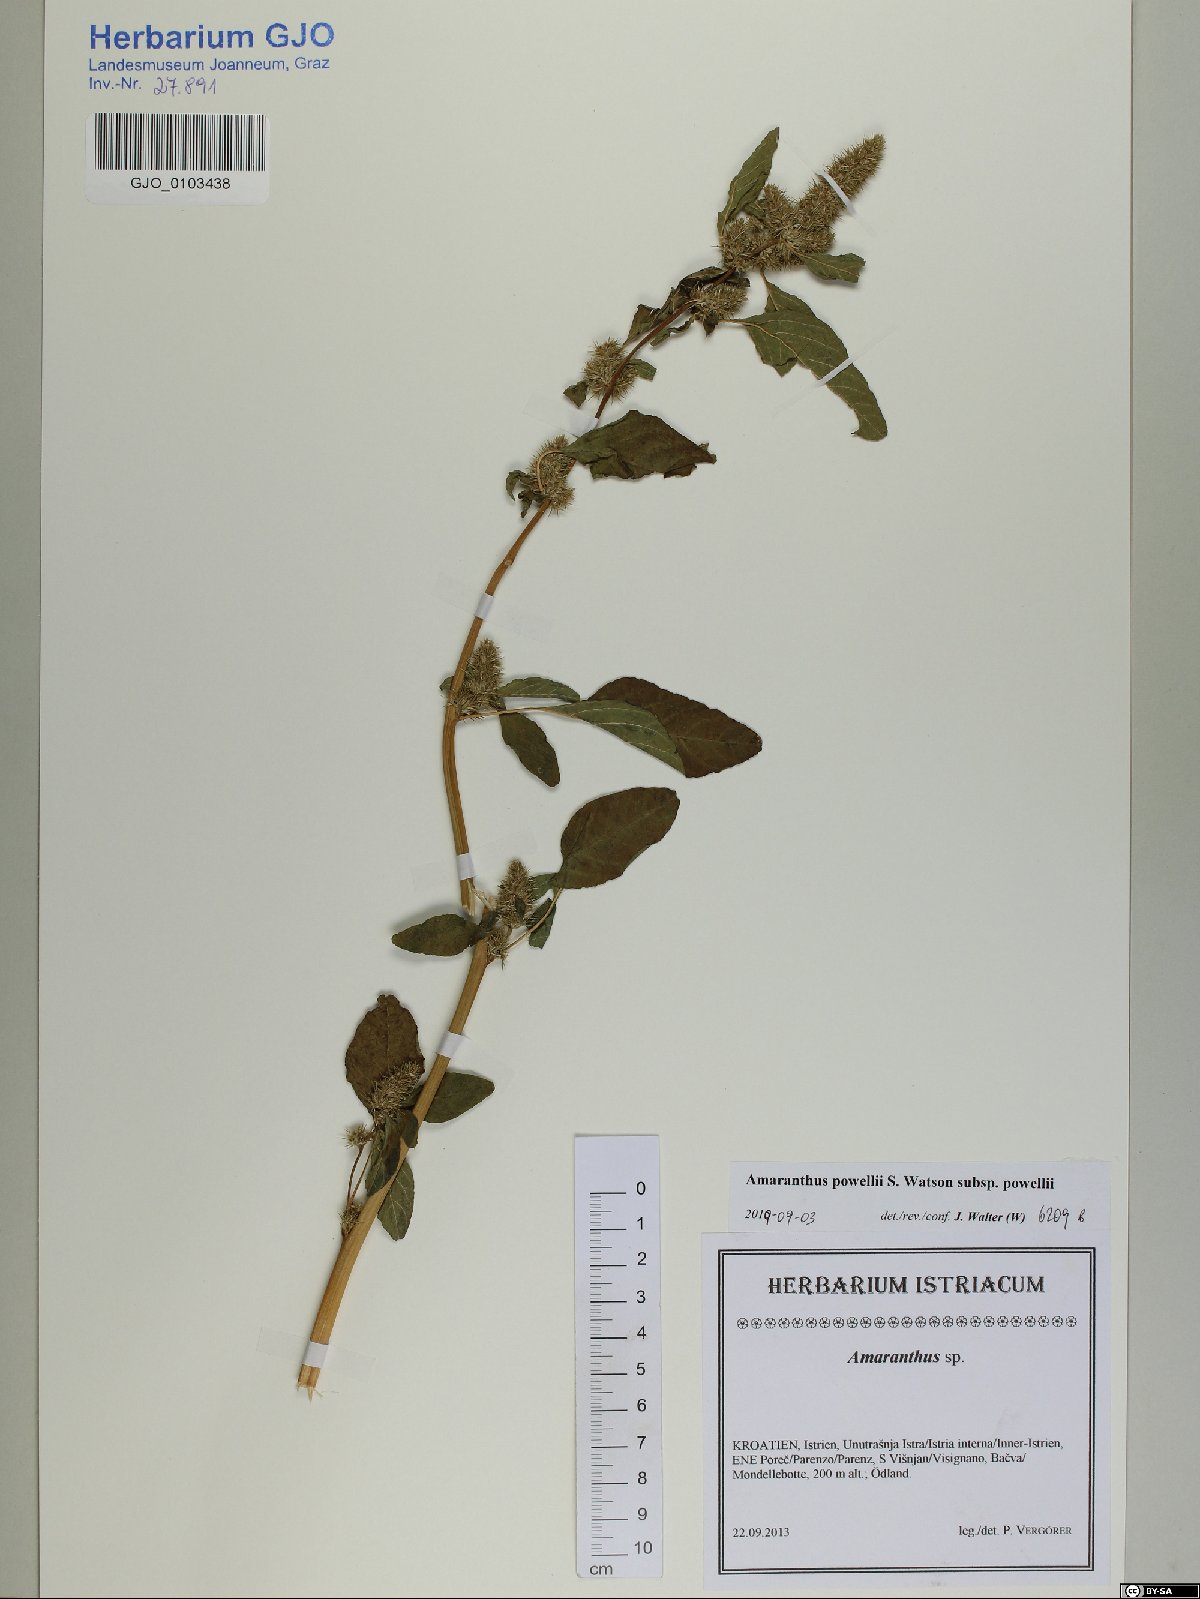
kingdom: Plantae
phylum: Tracheophyta
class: Magnoliopsida
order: Caryophyllales
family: Amaranthaceae
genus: Amaranthus
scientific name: Amaranthus powellii
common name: Powell's amaranth
